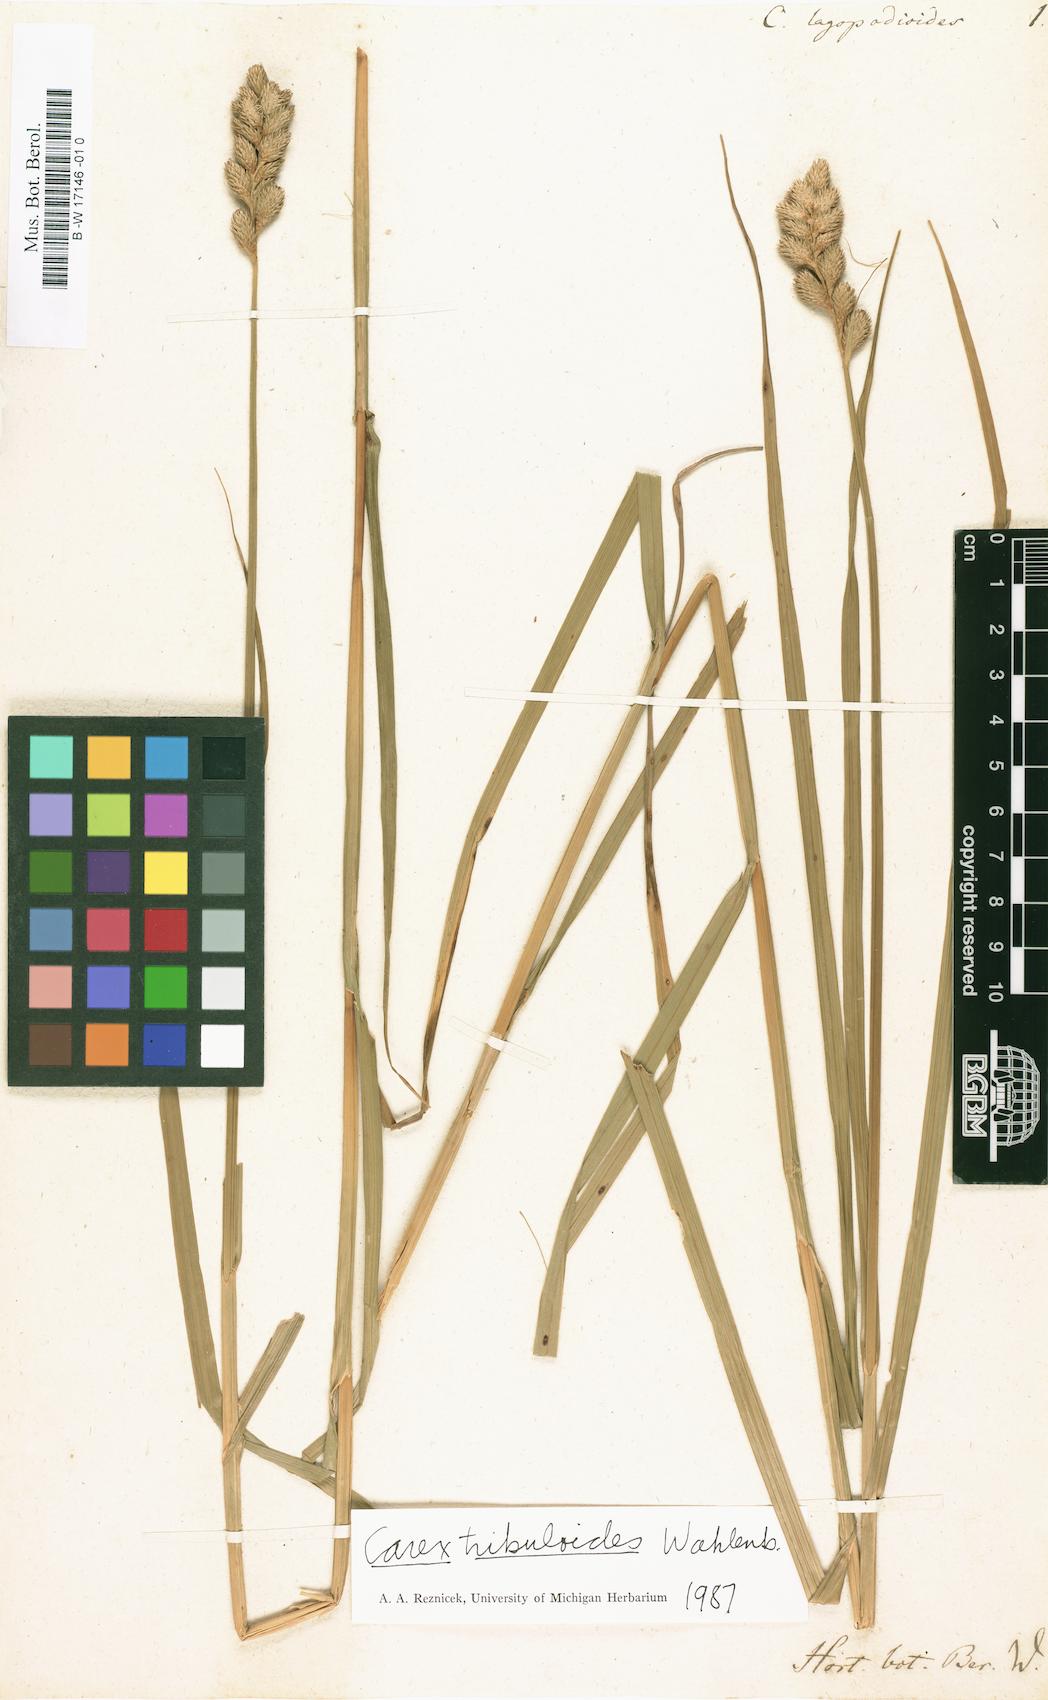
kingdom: Plantae
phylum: Tracheophyta
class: Liliopsida
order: Poales
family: Cyperaceae
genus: Carex
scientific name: Carex lagopodioides
